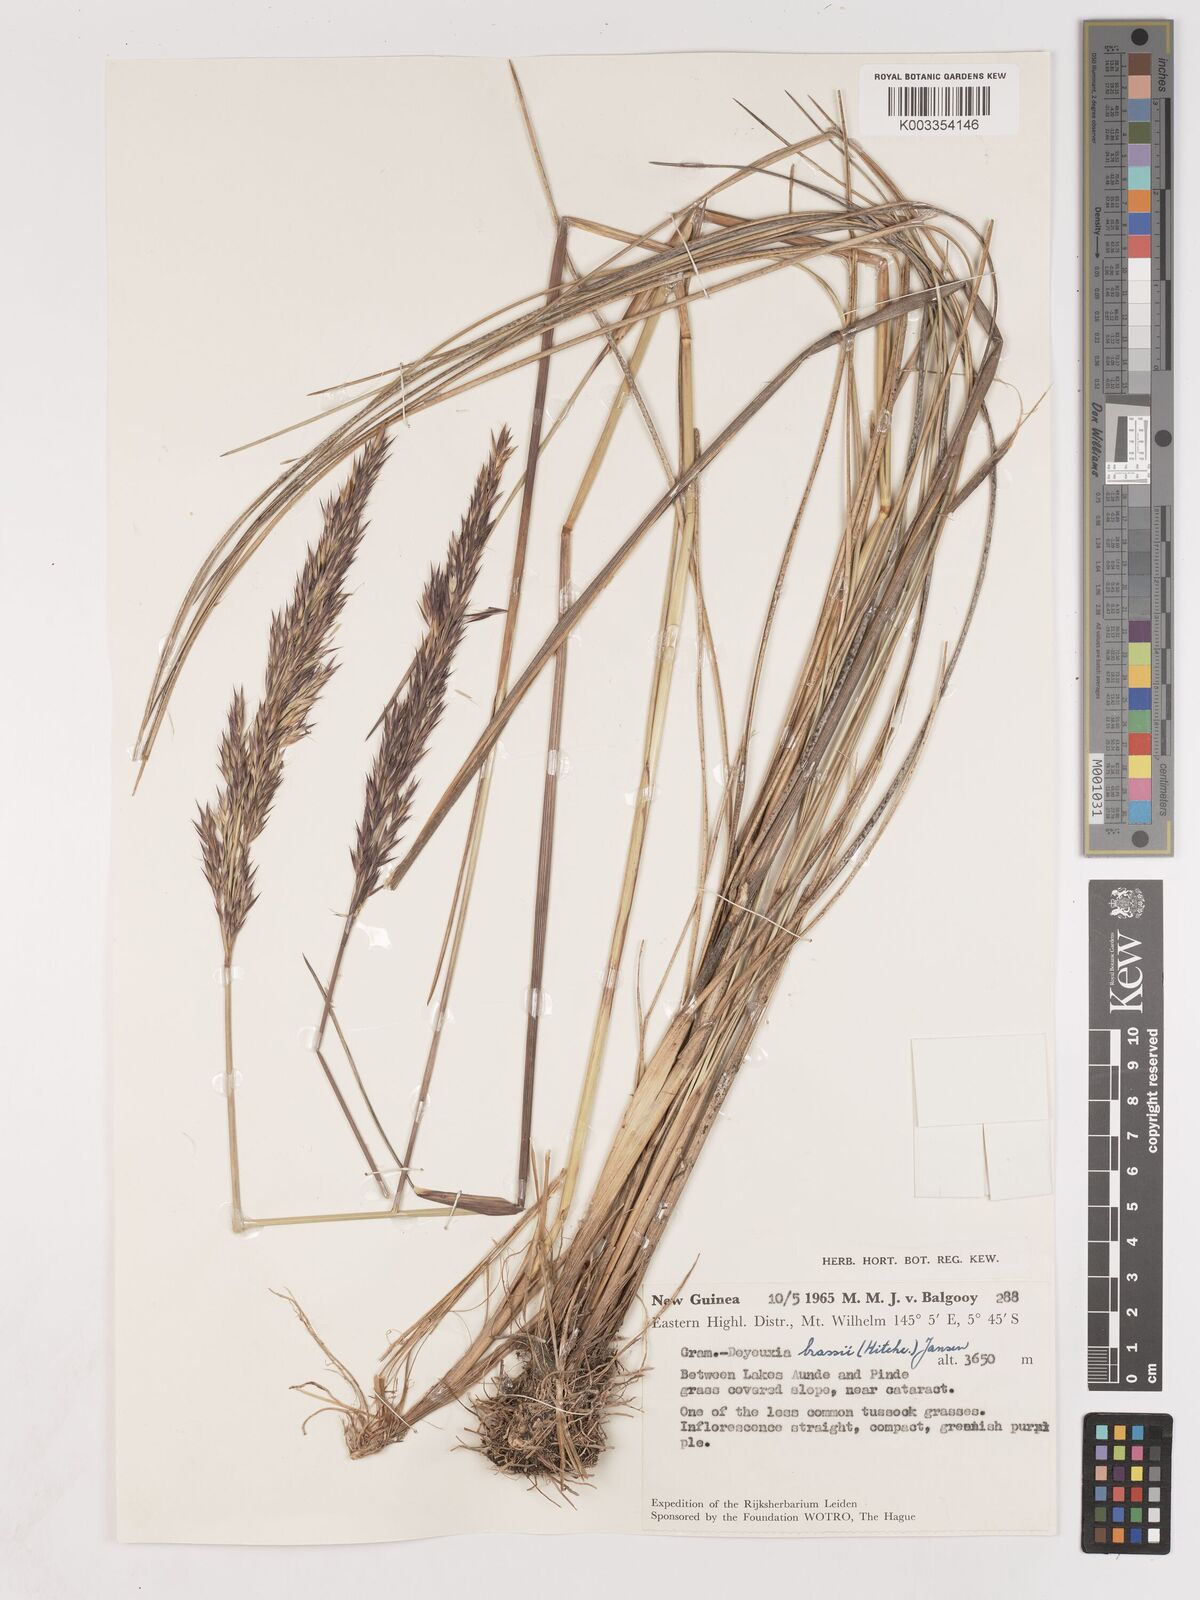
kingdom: Plantae
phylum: Tracheophyta
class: Liliopsida
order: Poales
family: Poaceae
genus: Calamagrostis
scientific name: Calamagrostis brassii
